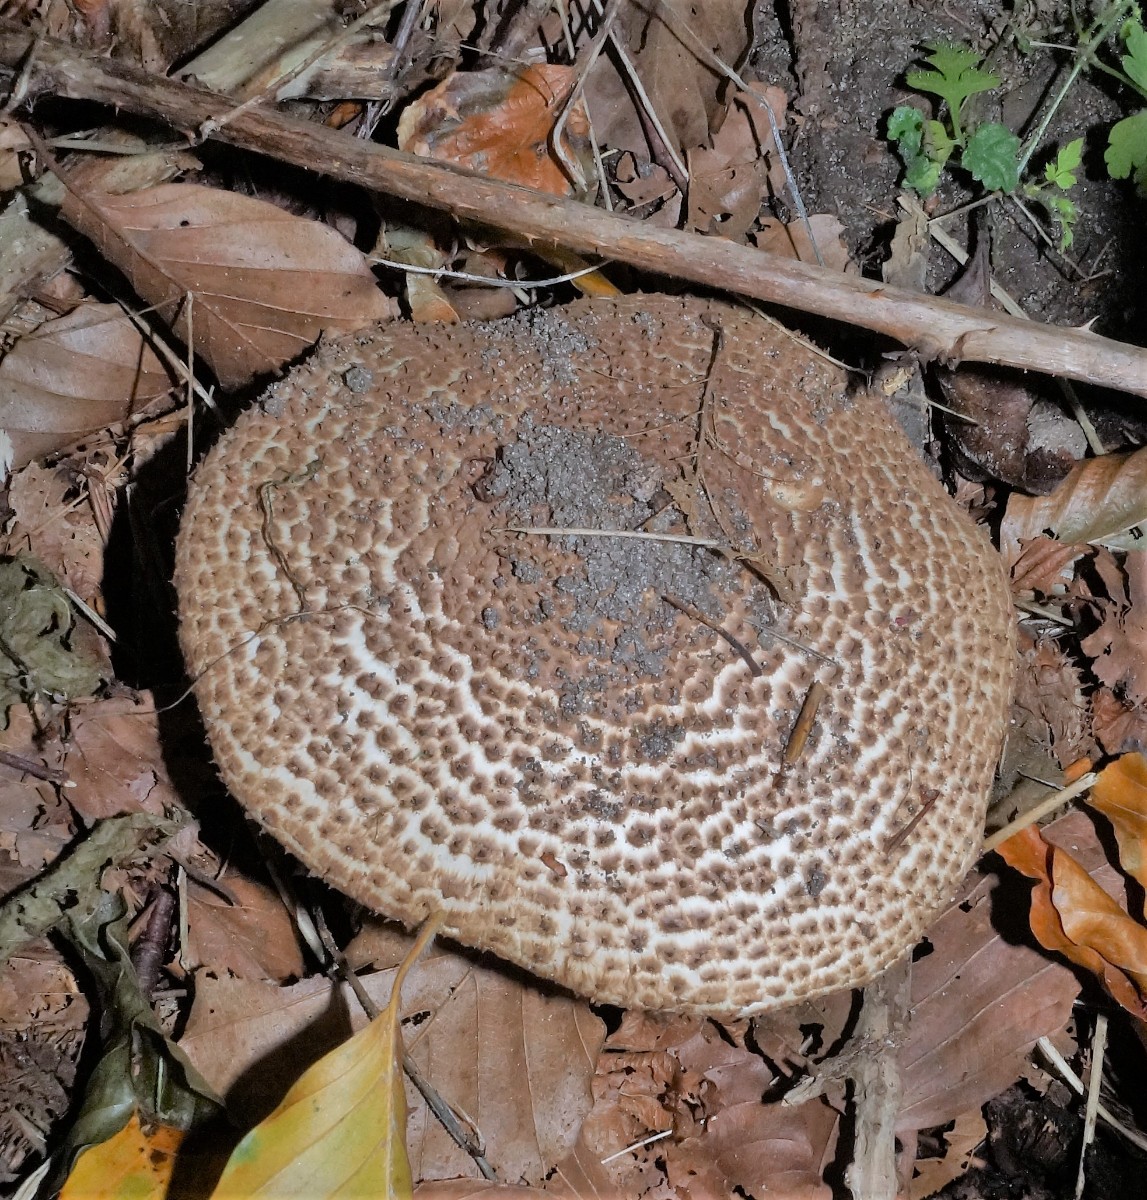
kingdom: Fungi
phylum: Basidiomycota
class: Agaricomycetes
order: Agaricales
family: Agaricaceae
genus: Echinoderma
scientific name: Echinoderma asperum
